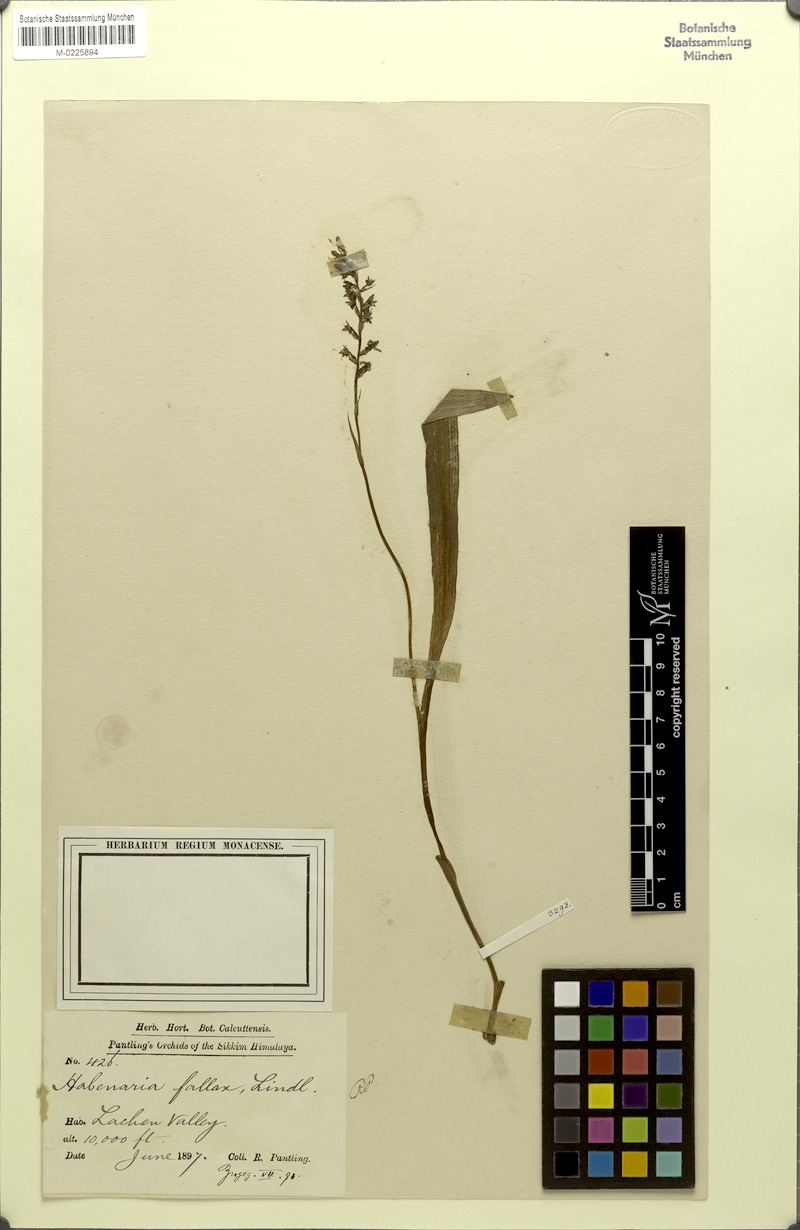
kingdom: Plantae
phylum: Tracheophyta
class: Liliopsida
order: Asparagales
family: Orchidaceae
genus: Herminium
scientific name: Herminium fallax
